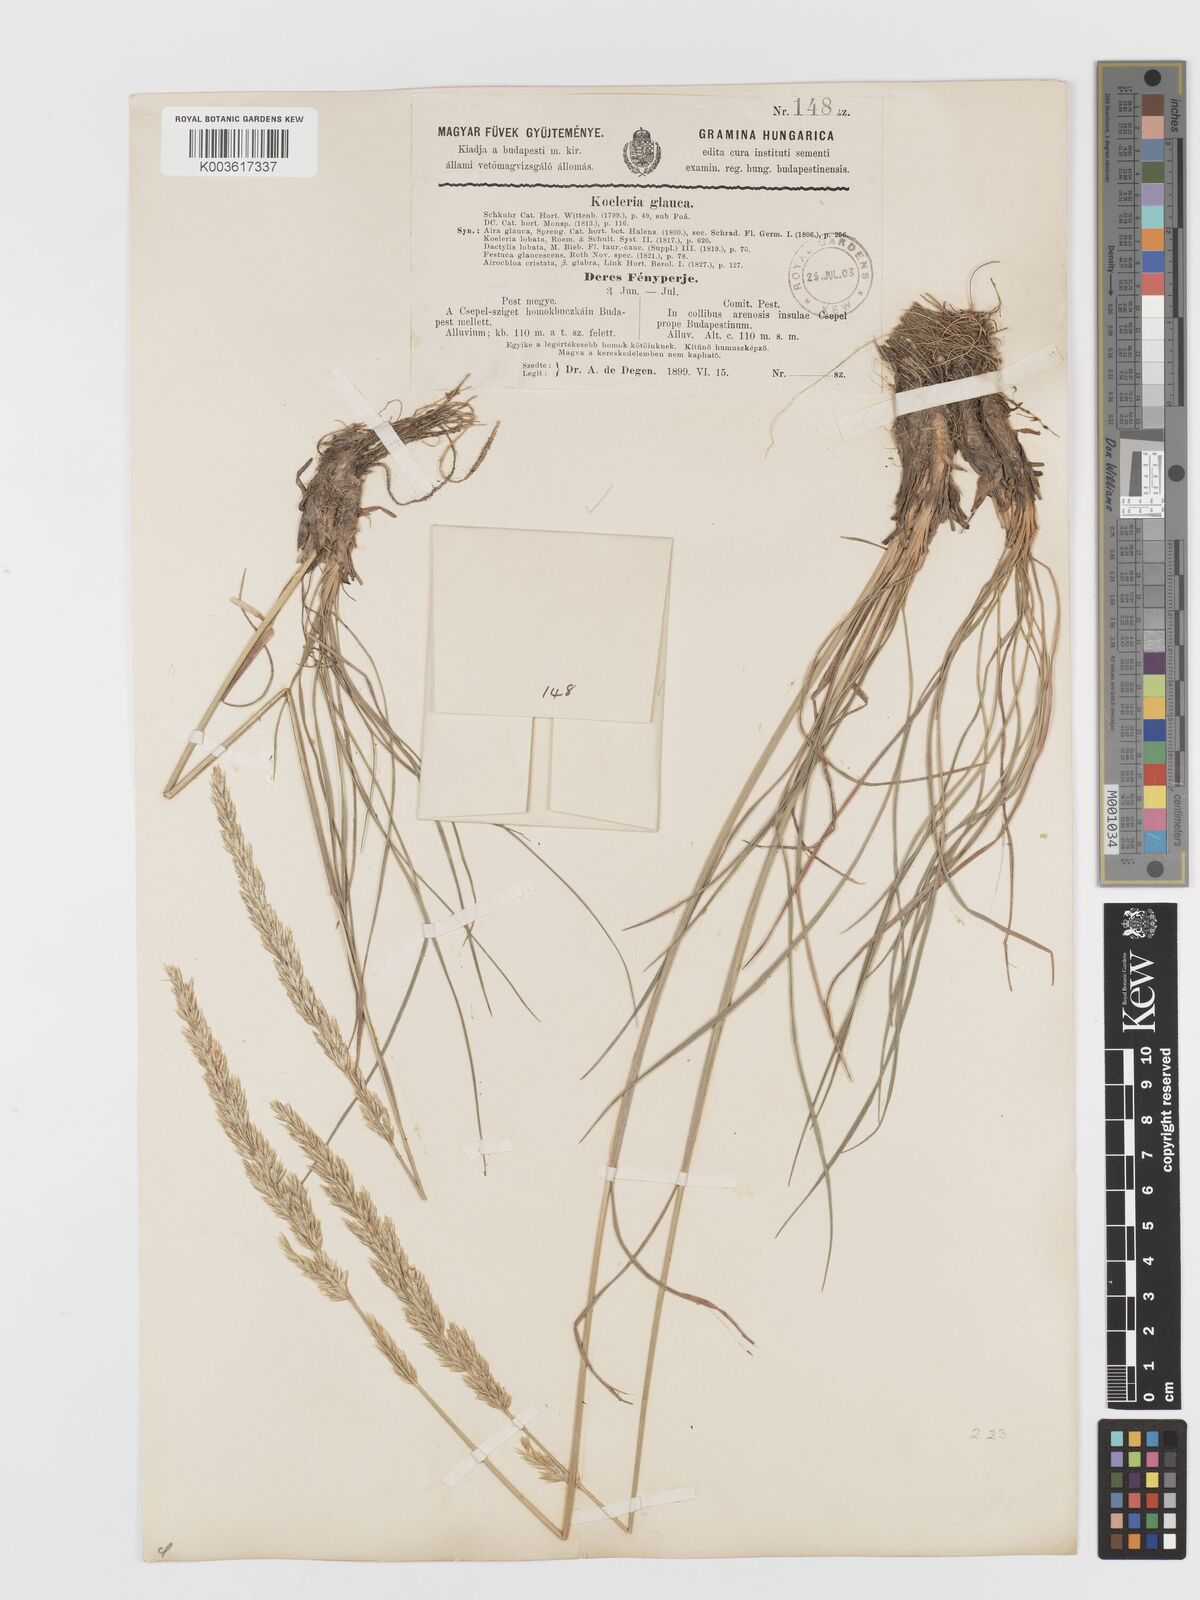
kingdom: Plantae
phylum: Tracheophyta
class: Liliopsida
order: Poales
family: Poaceae
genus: Koeleria
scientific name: Koeleria glauca
